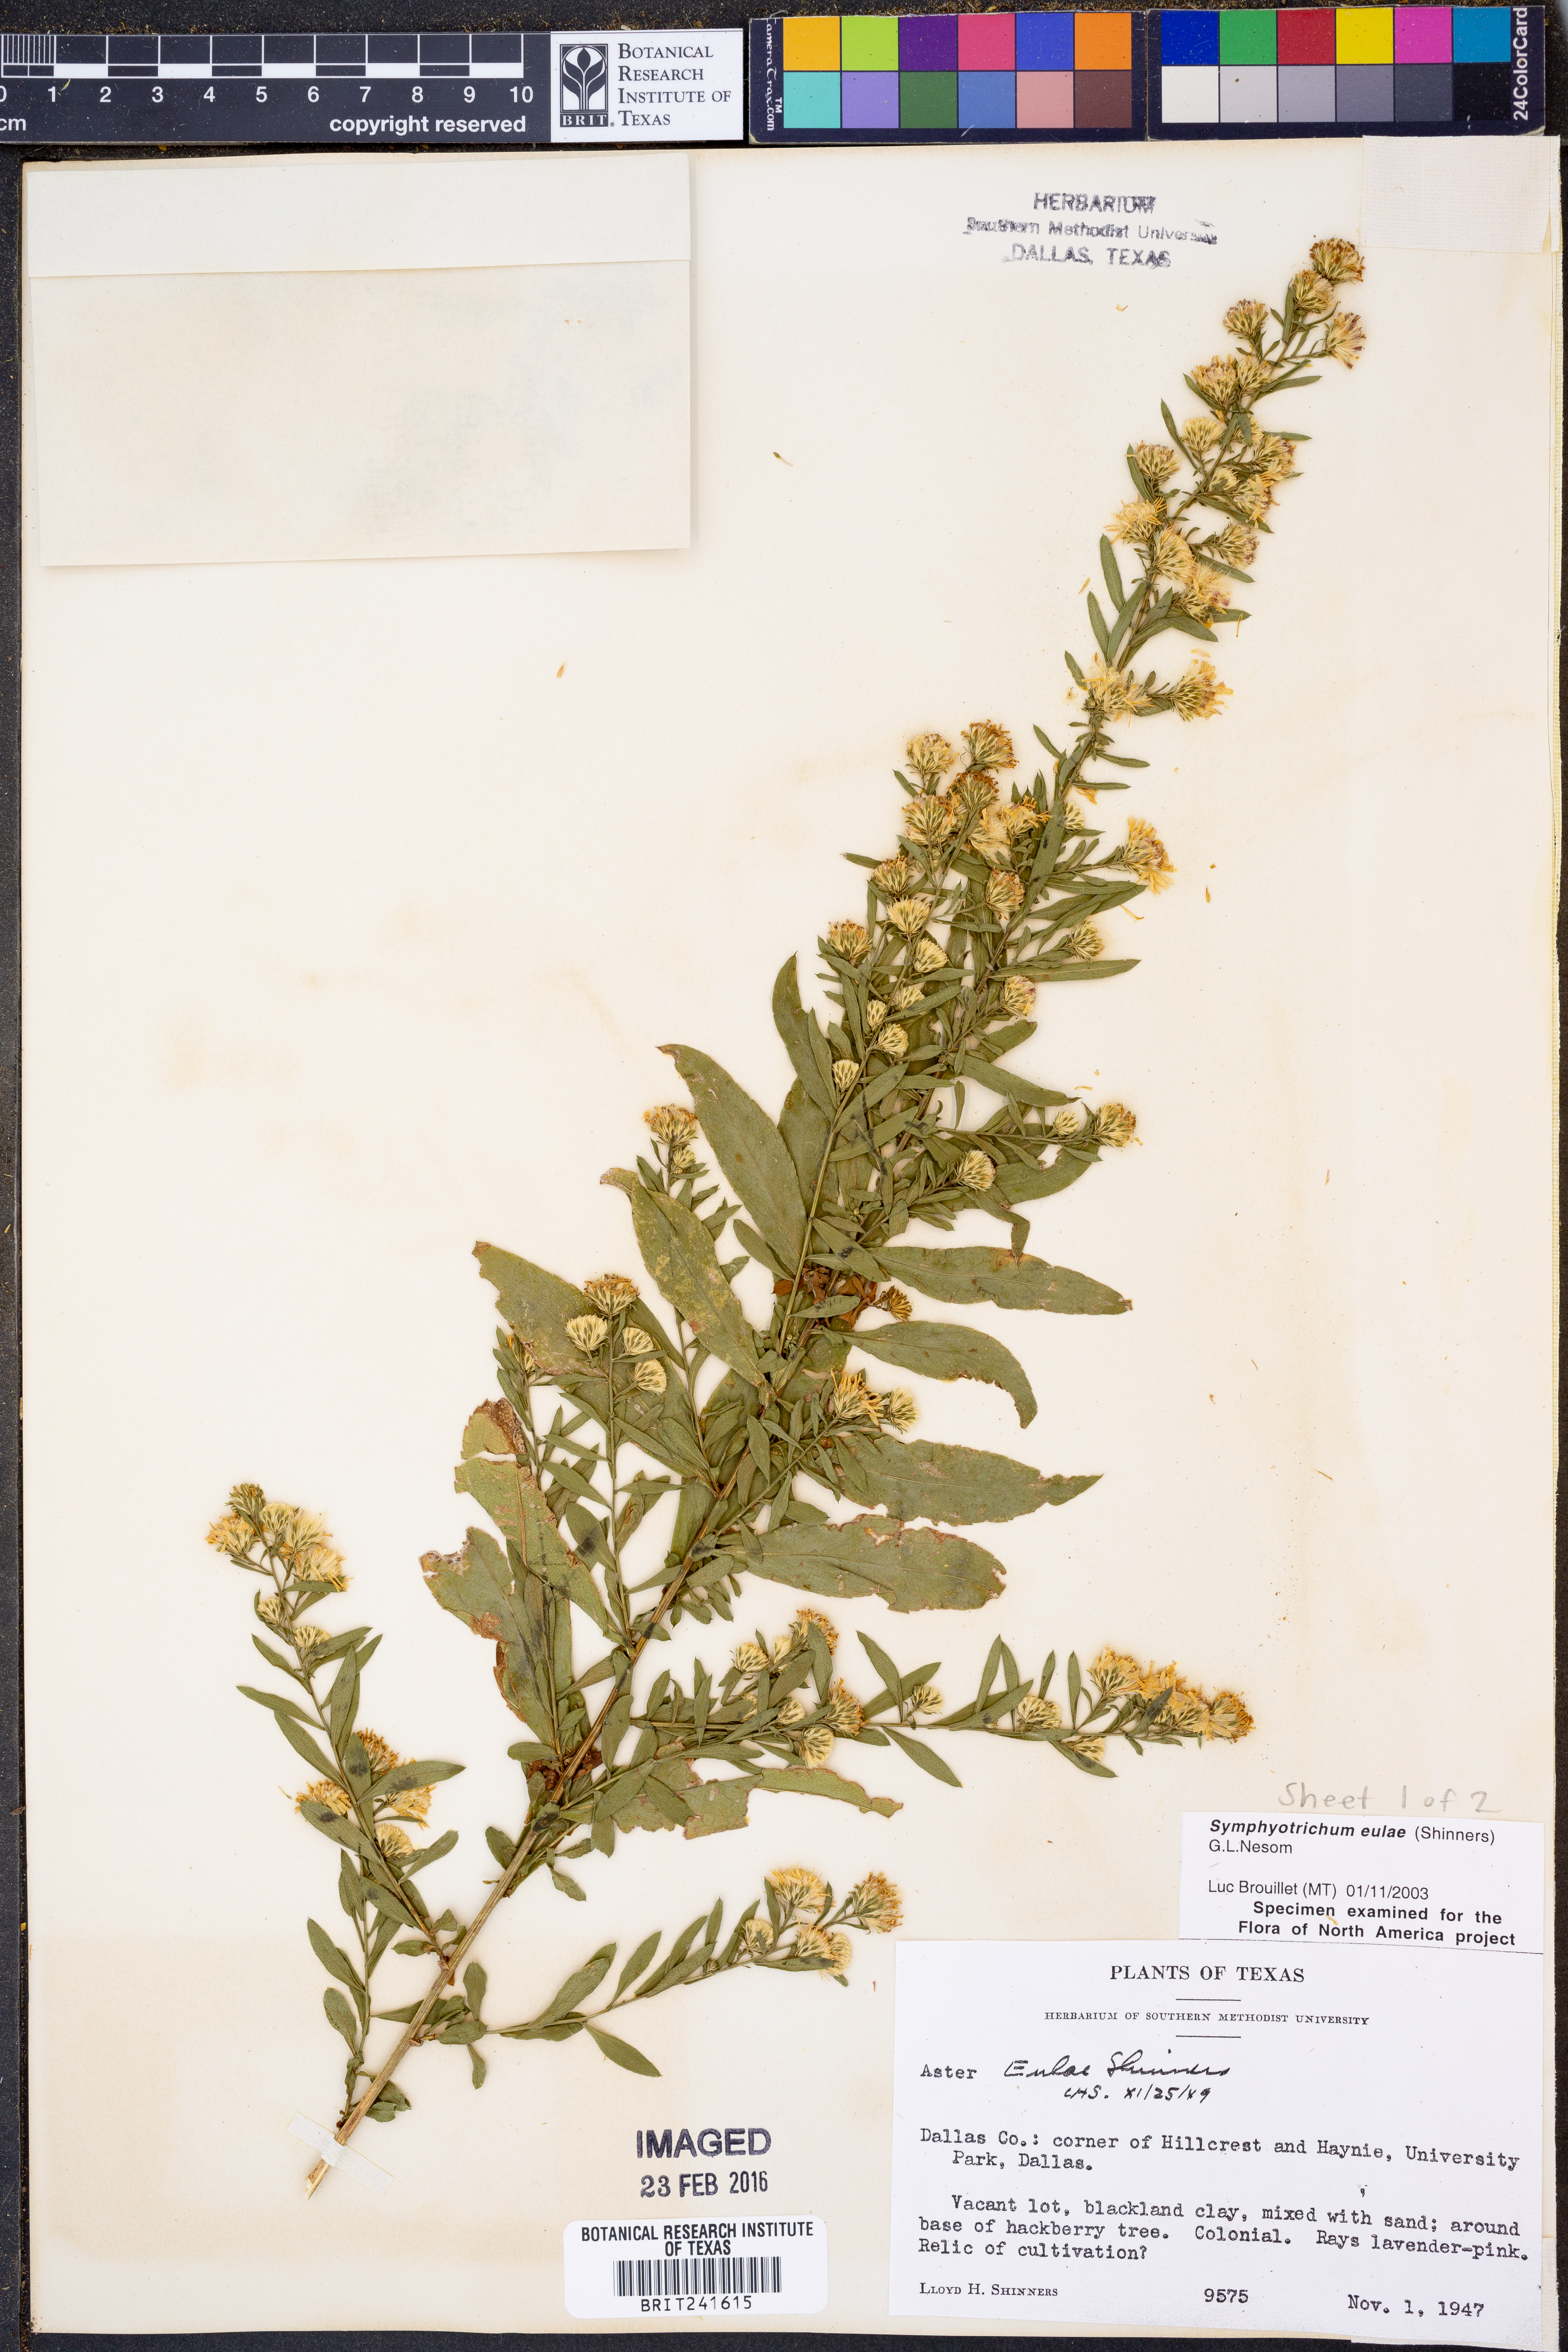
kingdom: Plantae
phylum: Tracheophyta
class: Magnoliopsida
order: Asterales
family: Asteraceae
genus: Symphyotrichum
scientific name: Symphyotrichum eulae
